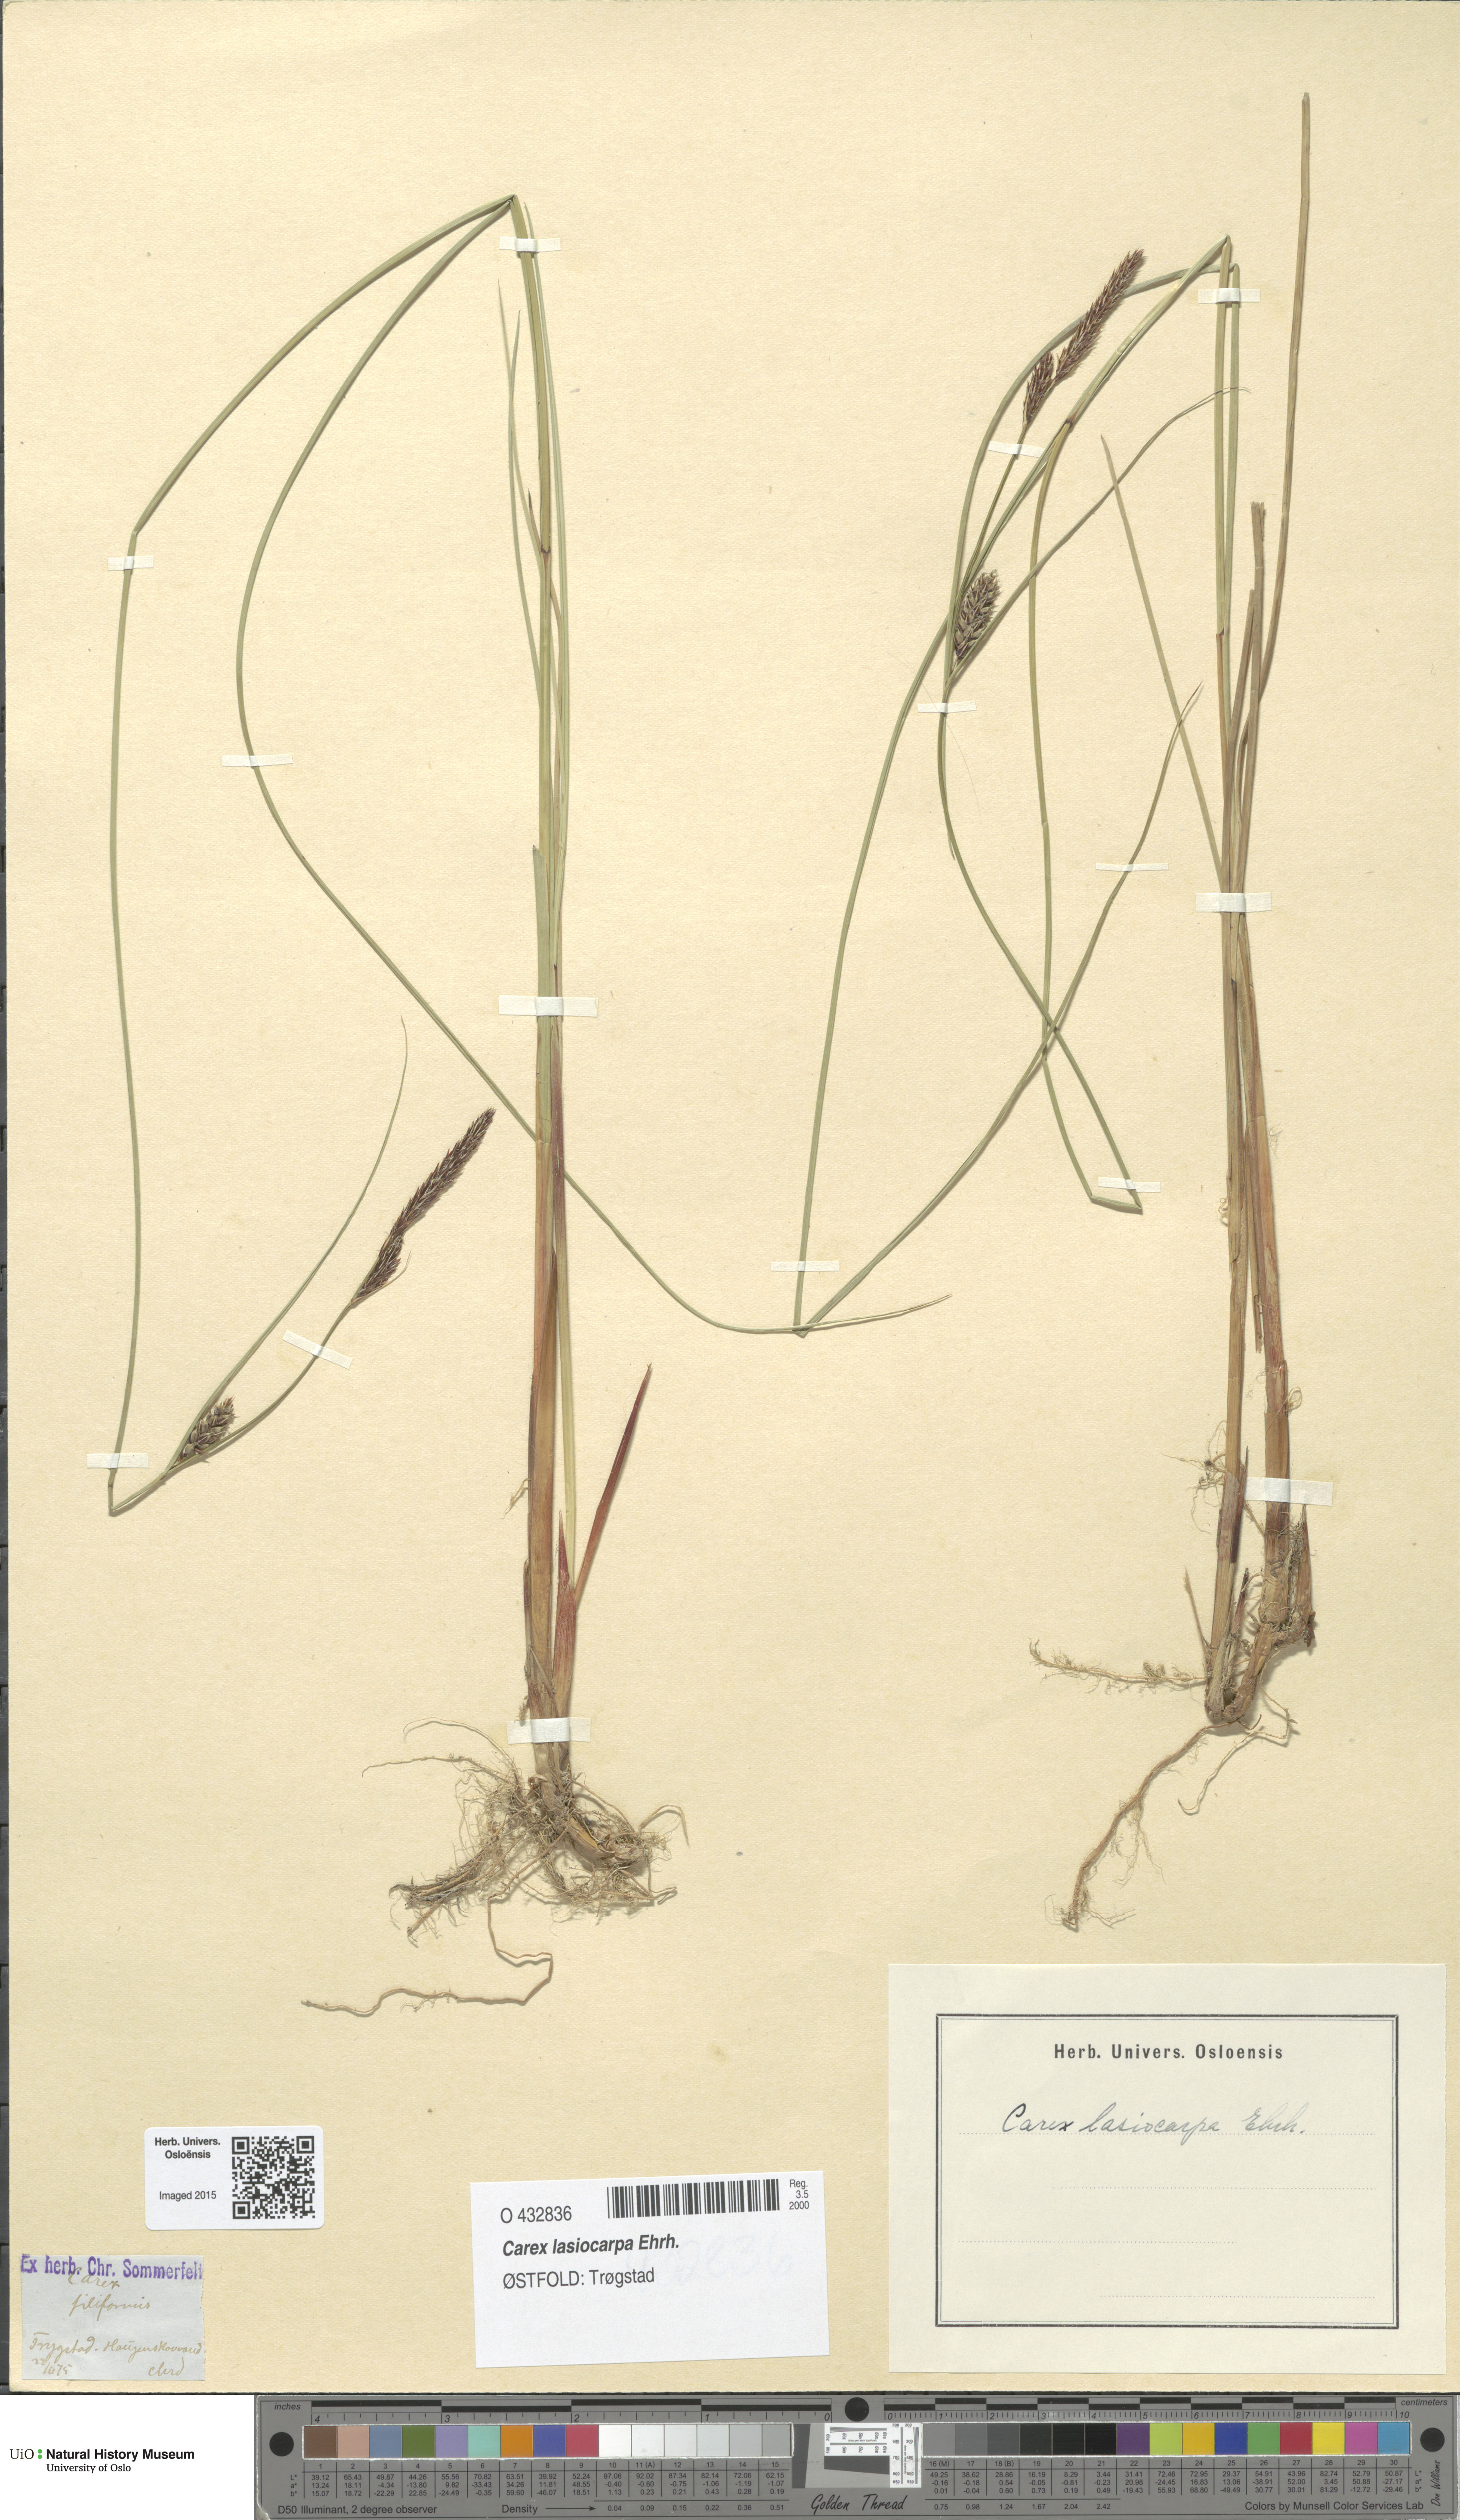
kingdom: Plantae
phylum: Tracheophyta
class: Liliopsida
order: Poales
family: Cyperaceae
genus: Carex
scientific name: Carex montana
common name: Soft-leaved sedge
